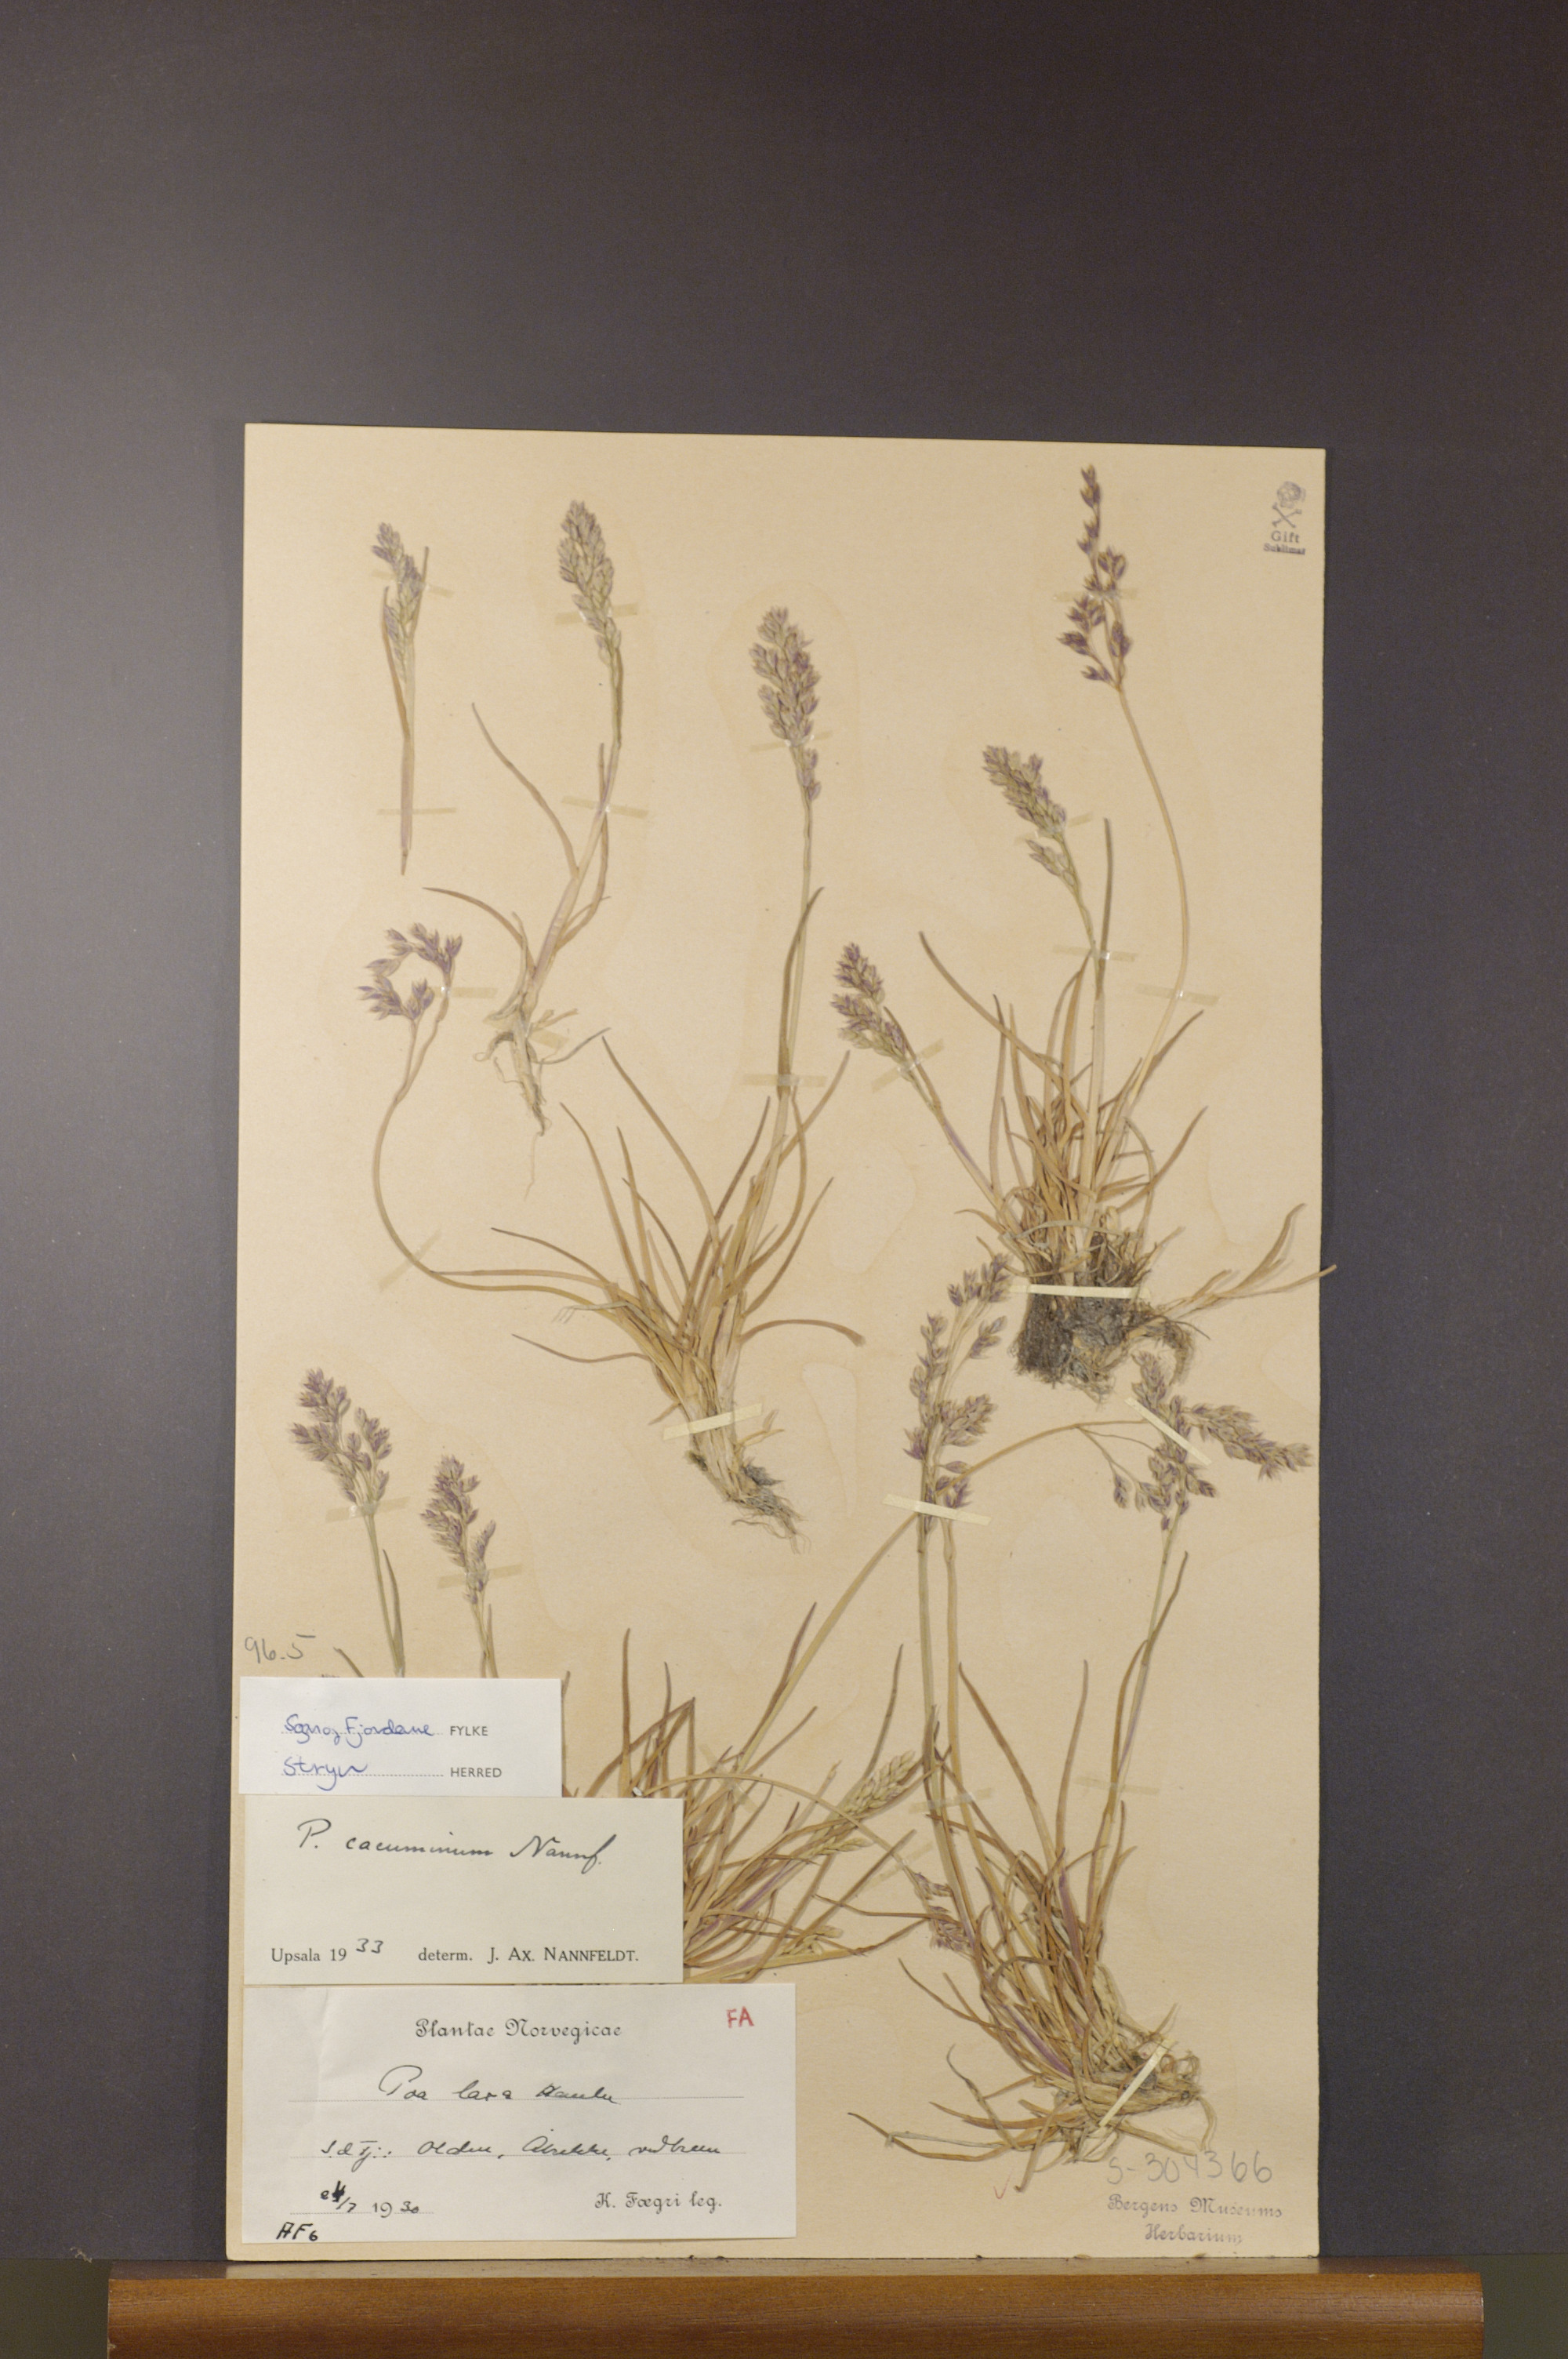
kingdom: Plantae
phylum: Tracheophyta
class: Liliopsida
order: Poales
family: Poaceae
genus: Poa
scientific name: Poa flexuosa
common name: Wavy meadow-grass
